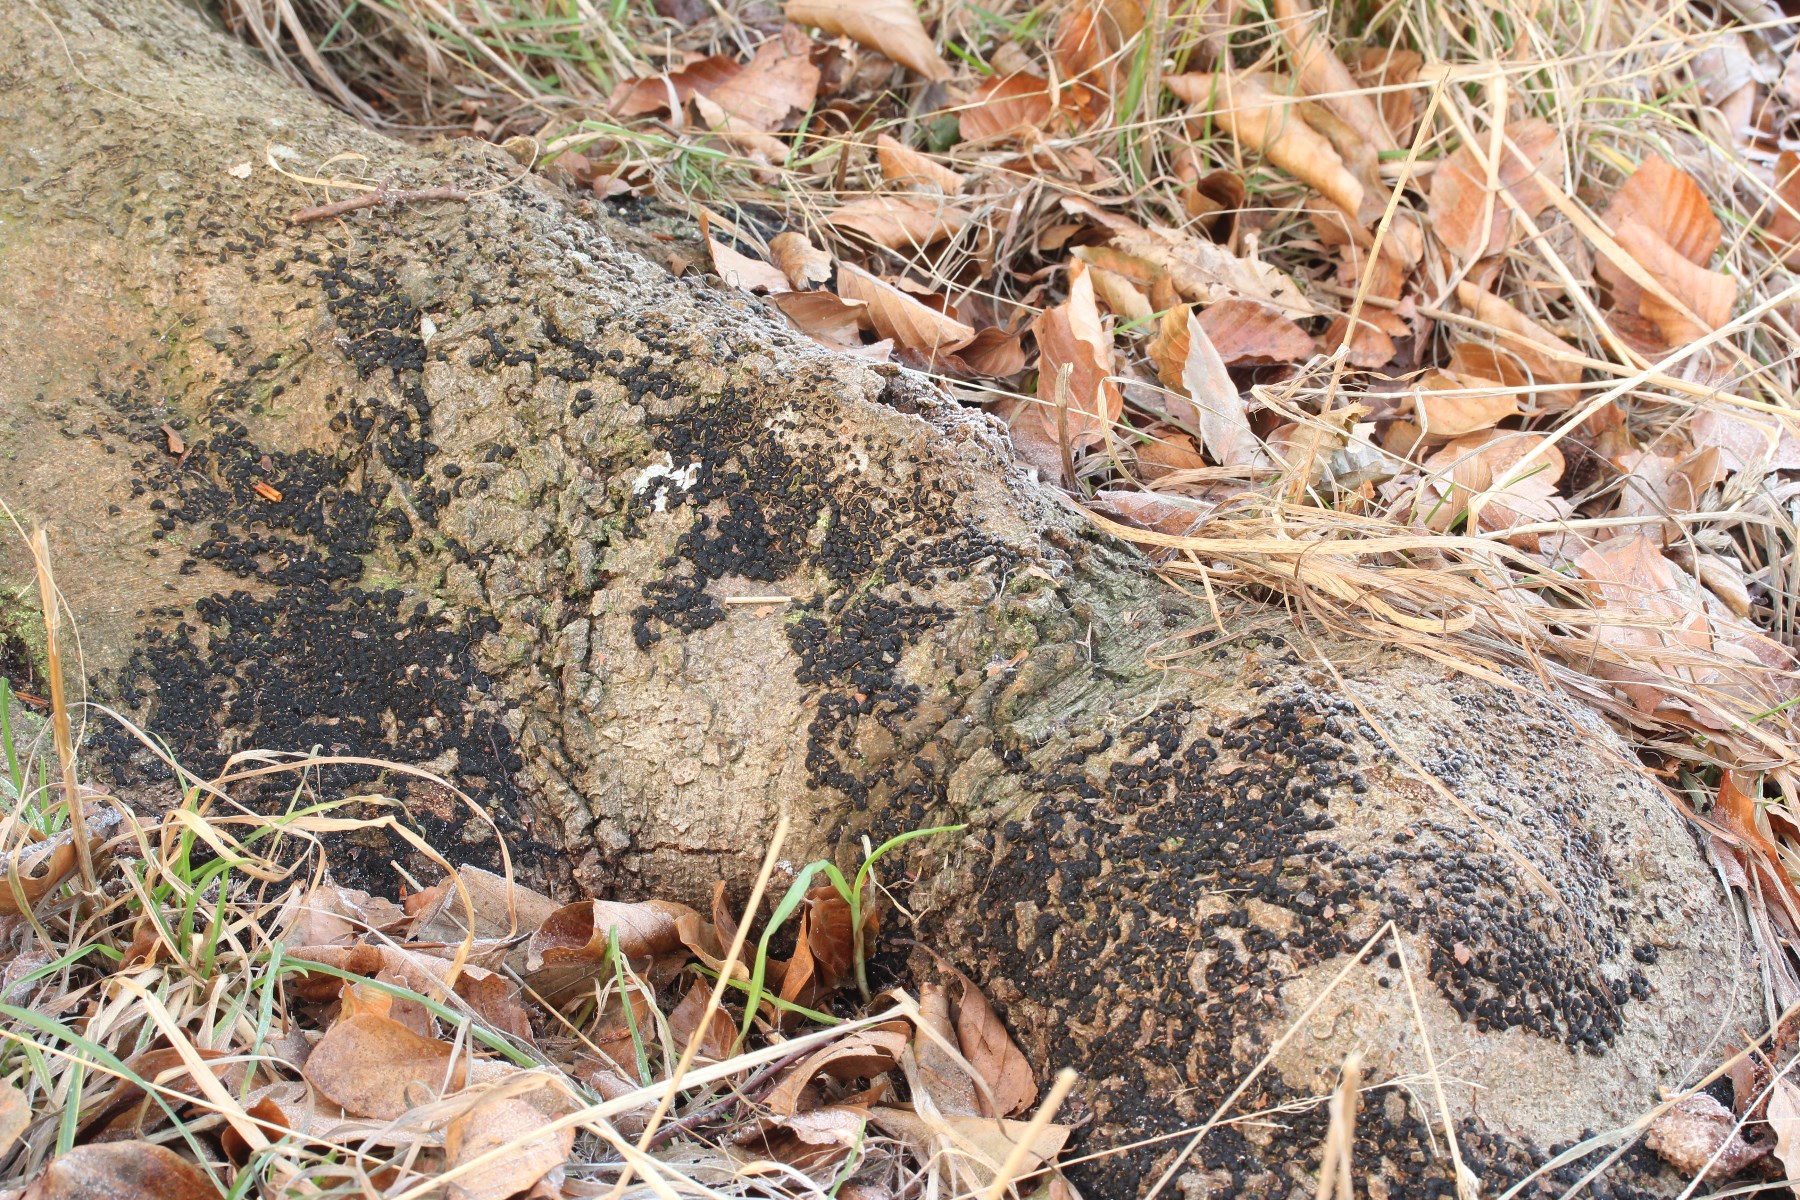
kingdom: Fungi
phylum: Ascomycota
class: Sordariomycetes
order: Xylariales
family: Melogrammataceae
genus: Melogramma
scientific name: Melogramma spiniferum
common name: bøgefod-kulhals
